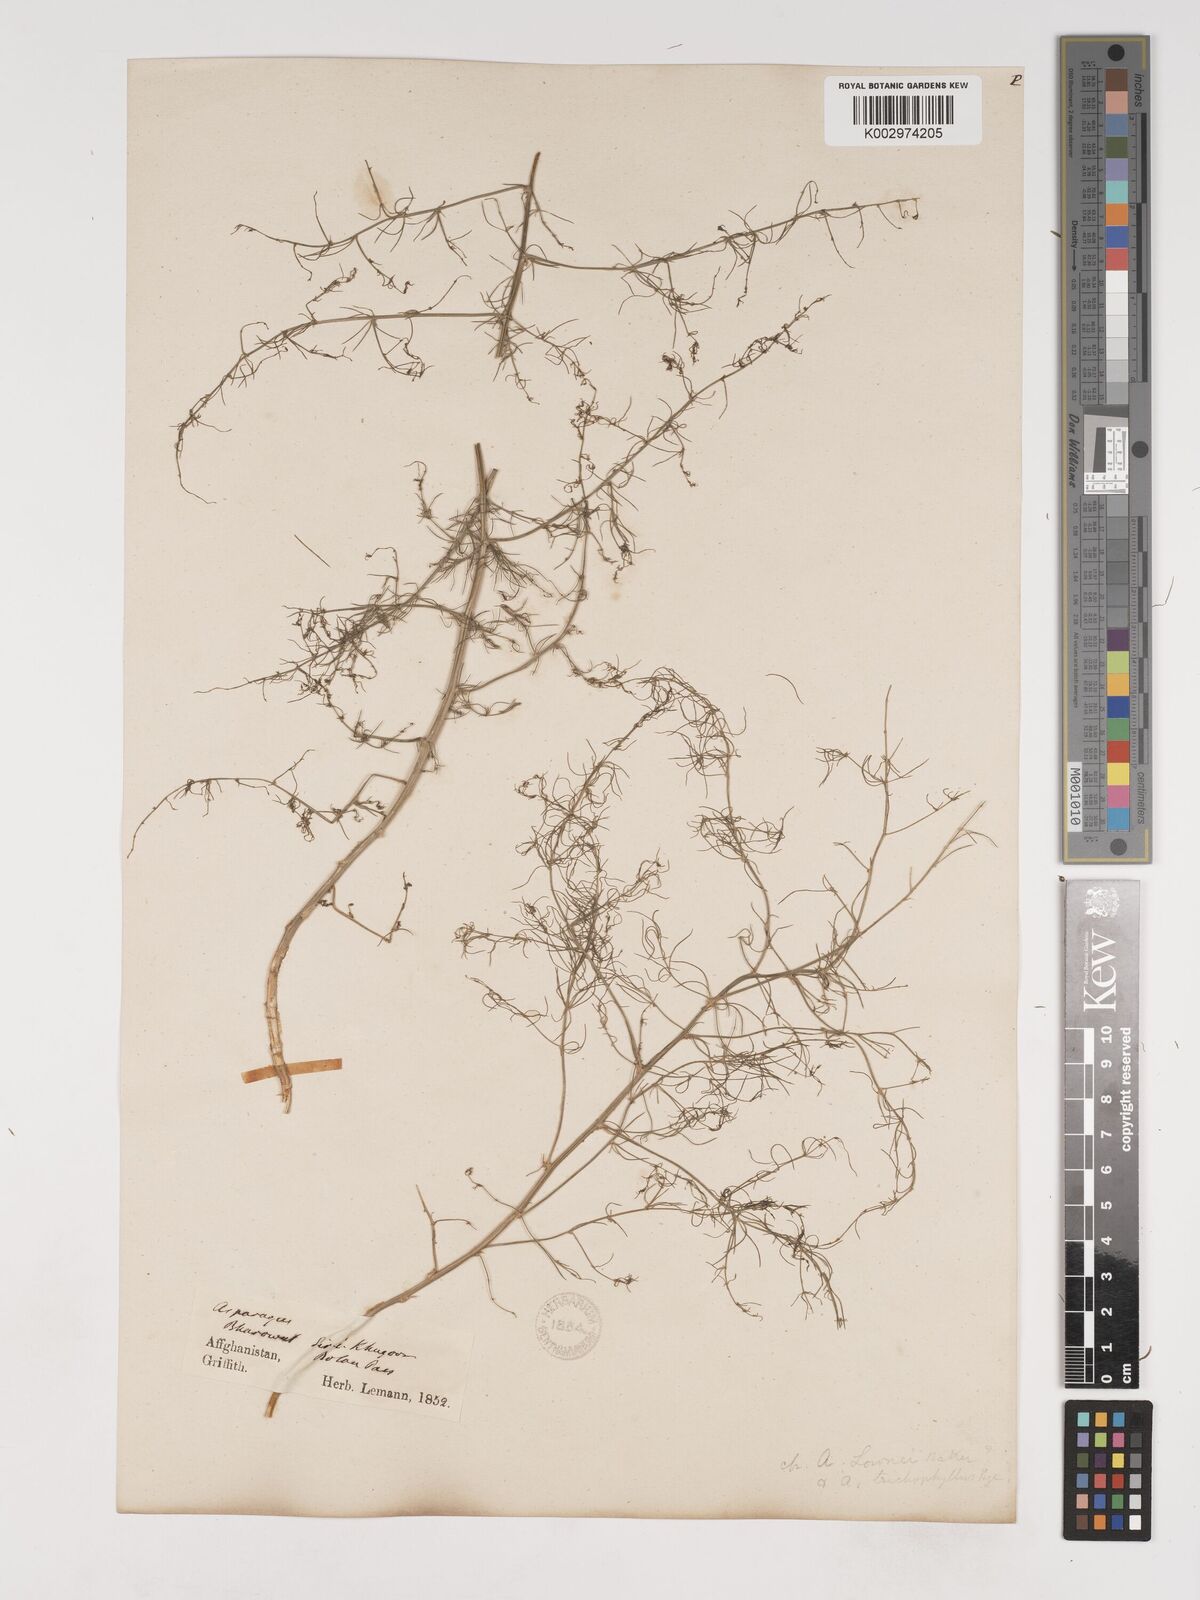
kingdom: Plantae
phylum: Tracheophyta
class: Liliopsida
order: Asparagales
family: Asparagaceae
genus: Asparagus
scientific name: Asparagus palaestinus
